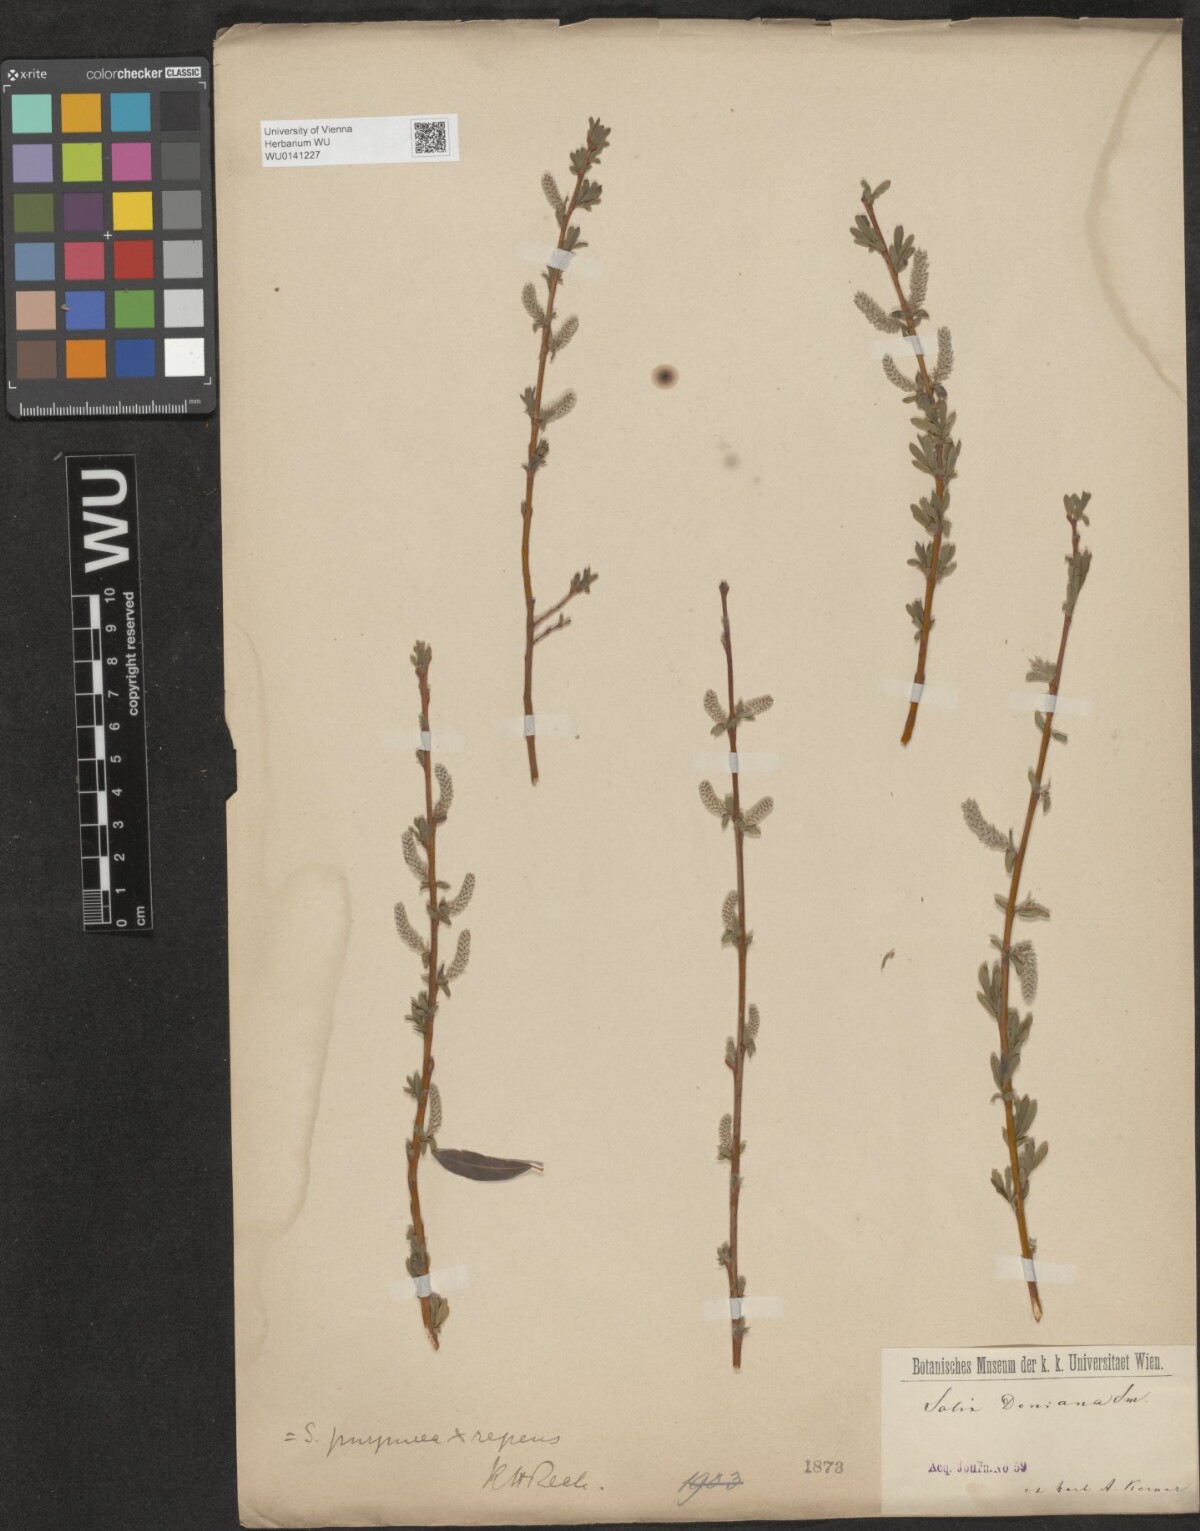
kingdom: Plantae
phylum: Tracheophyta
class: Magnoliopsida
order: Malpighiales
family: Salicaceae
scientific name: Salicaceae
